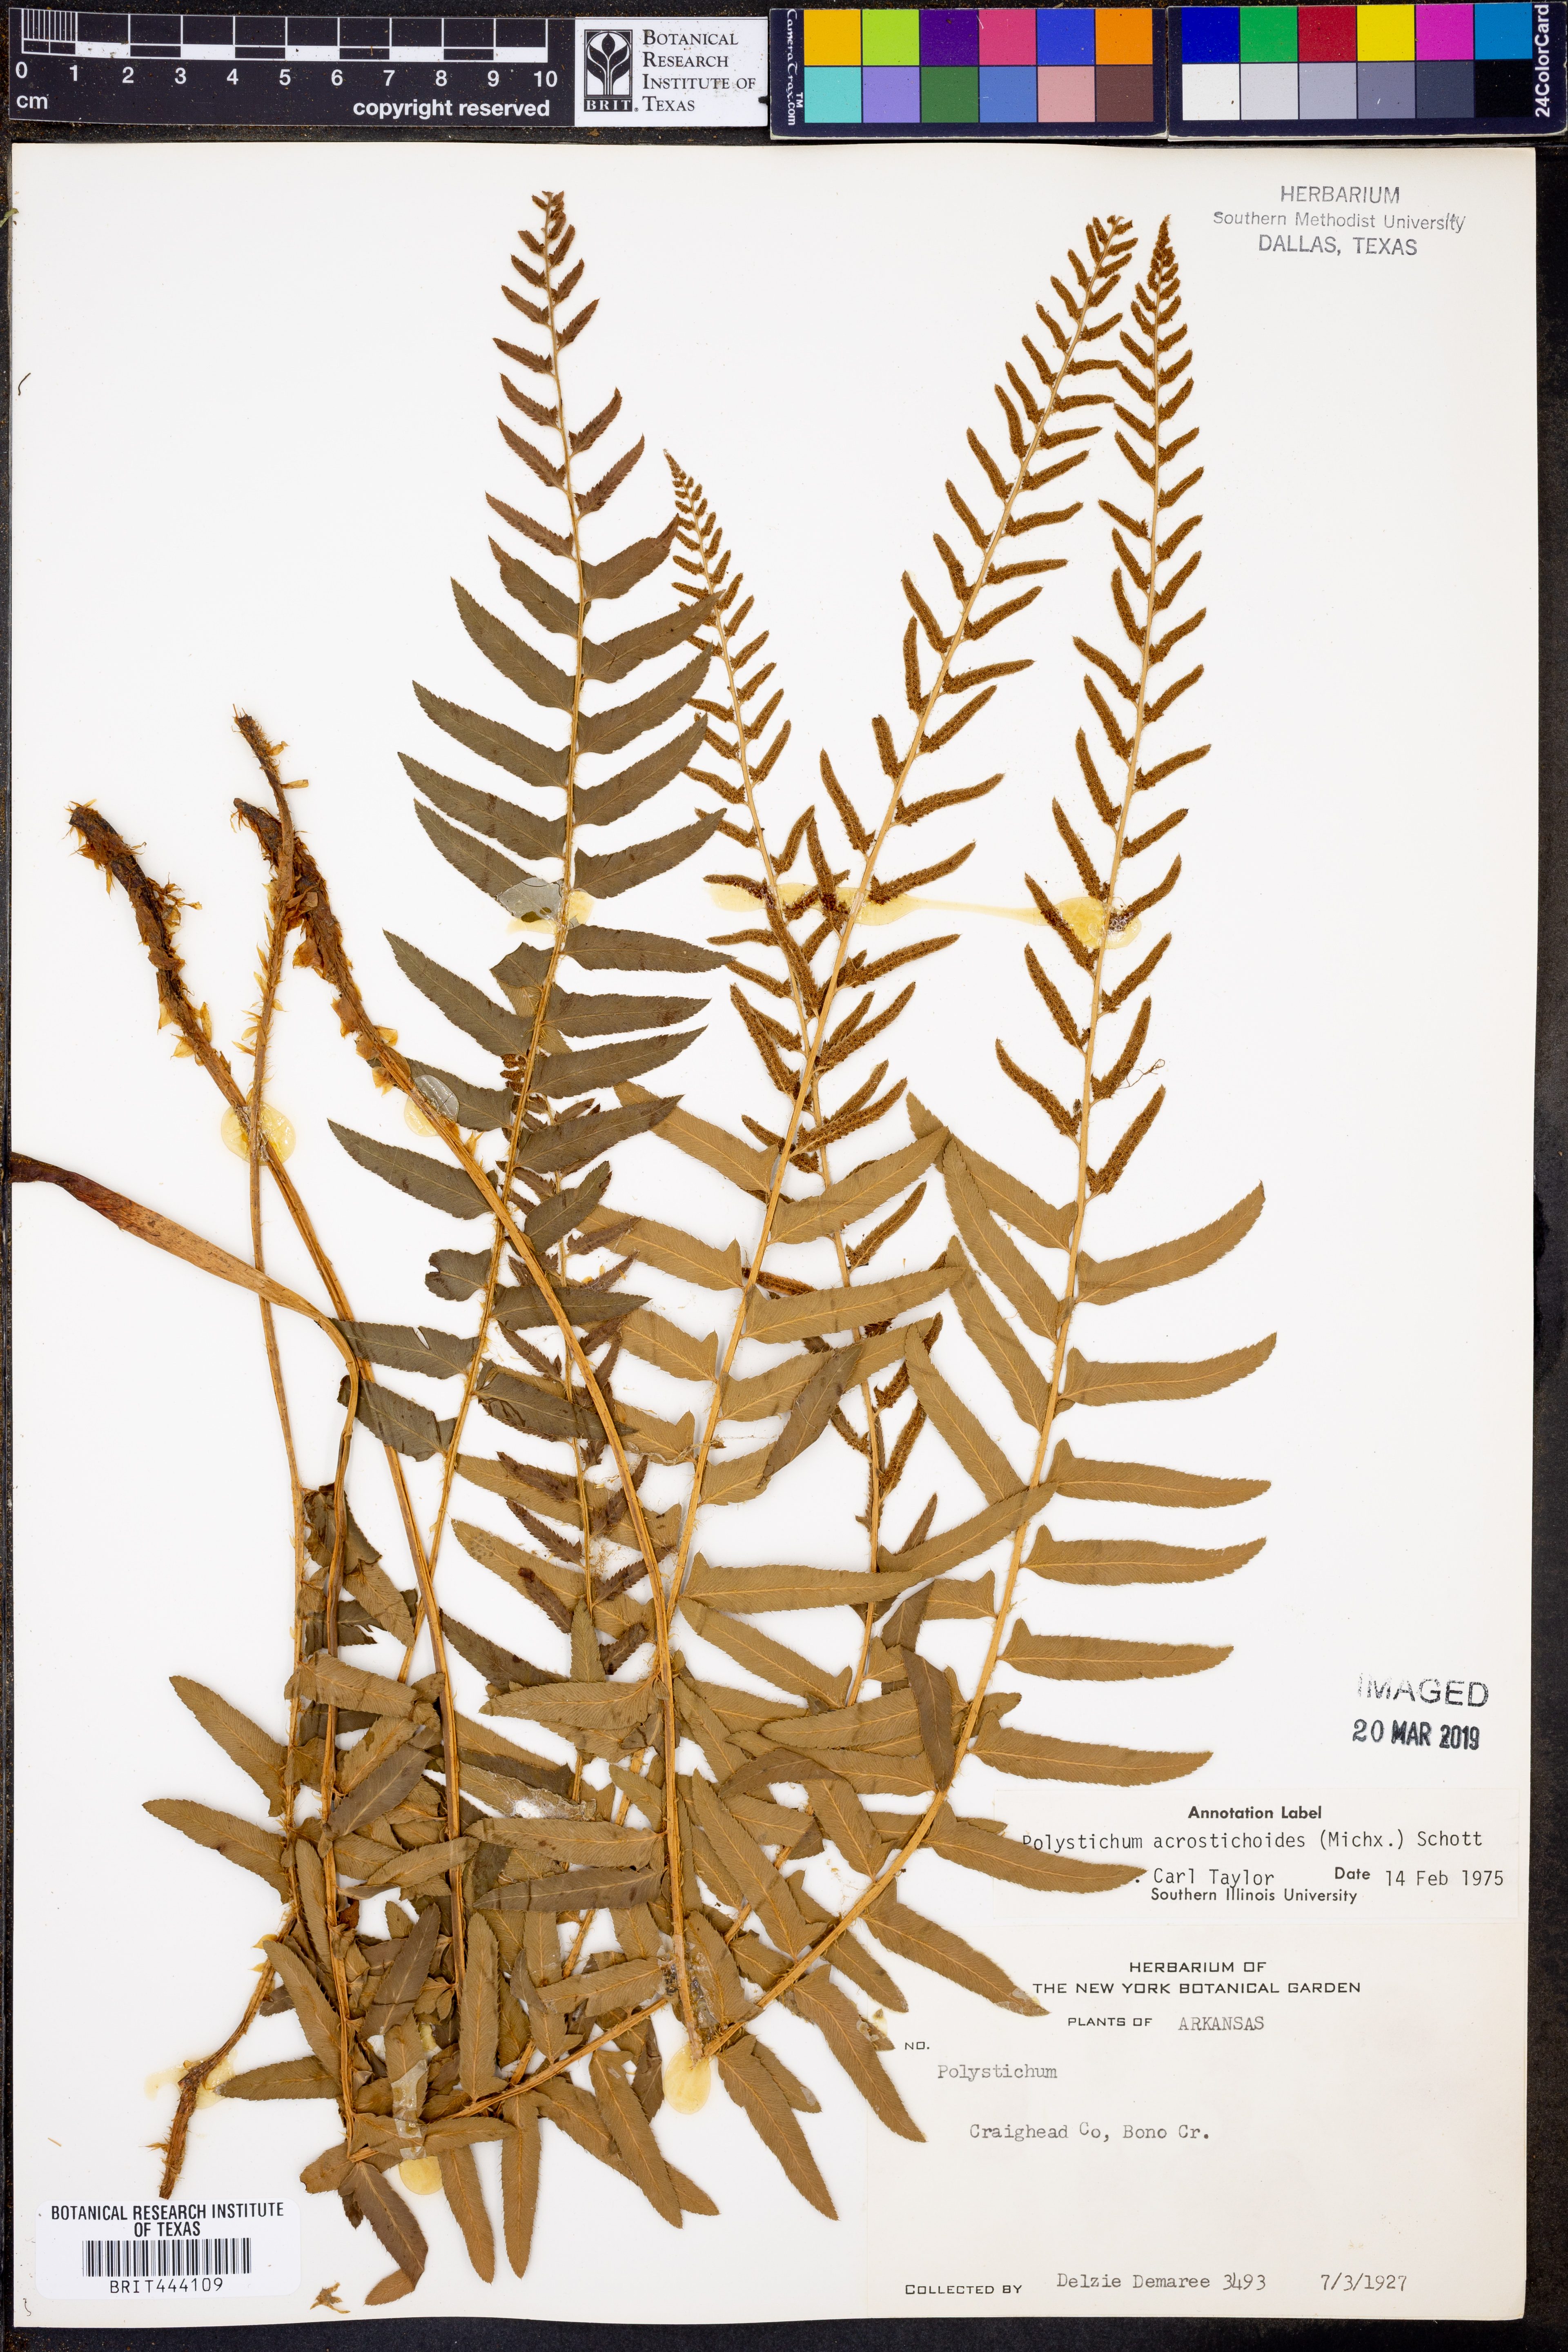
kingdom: Plantae
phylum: Tracheophyta
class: Polypodiopsida
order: Polypodiales
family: Dryopteridaceae
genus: Polystichum
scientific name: Polystichum acrostichoides
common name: Christmas fern
